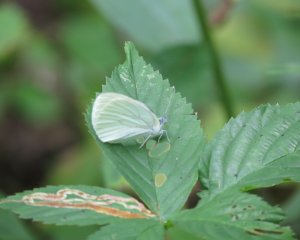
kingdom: Animalia
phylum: Arthropoda
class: Insecta
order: Lepidoptera
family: Pieridae
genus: Pieris
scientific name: Pieris oleracea
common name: Mustard White
